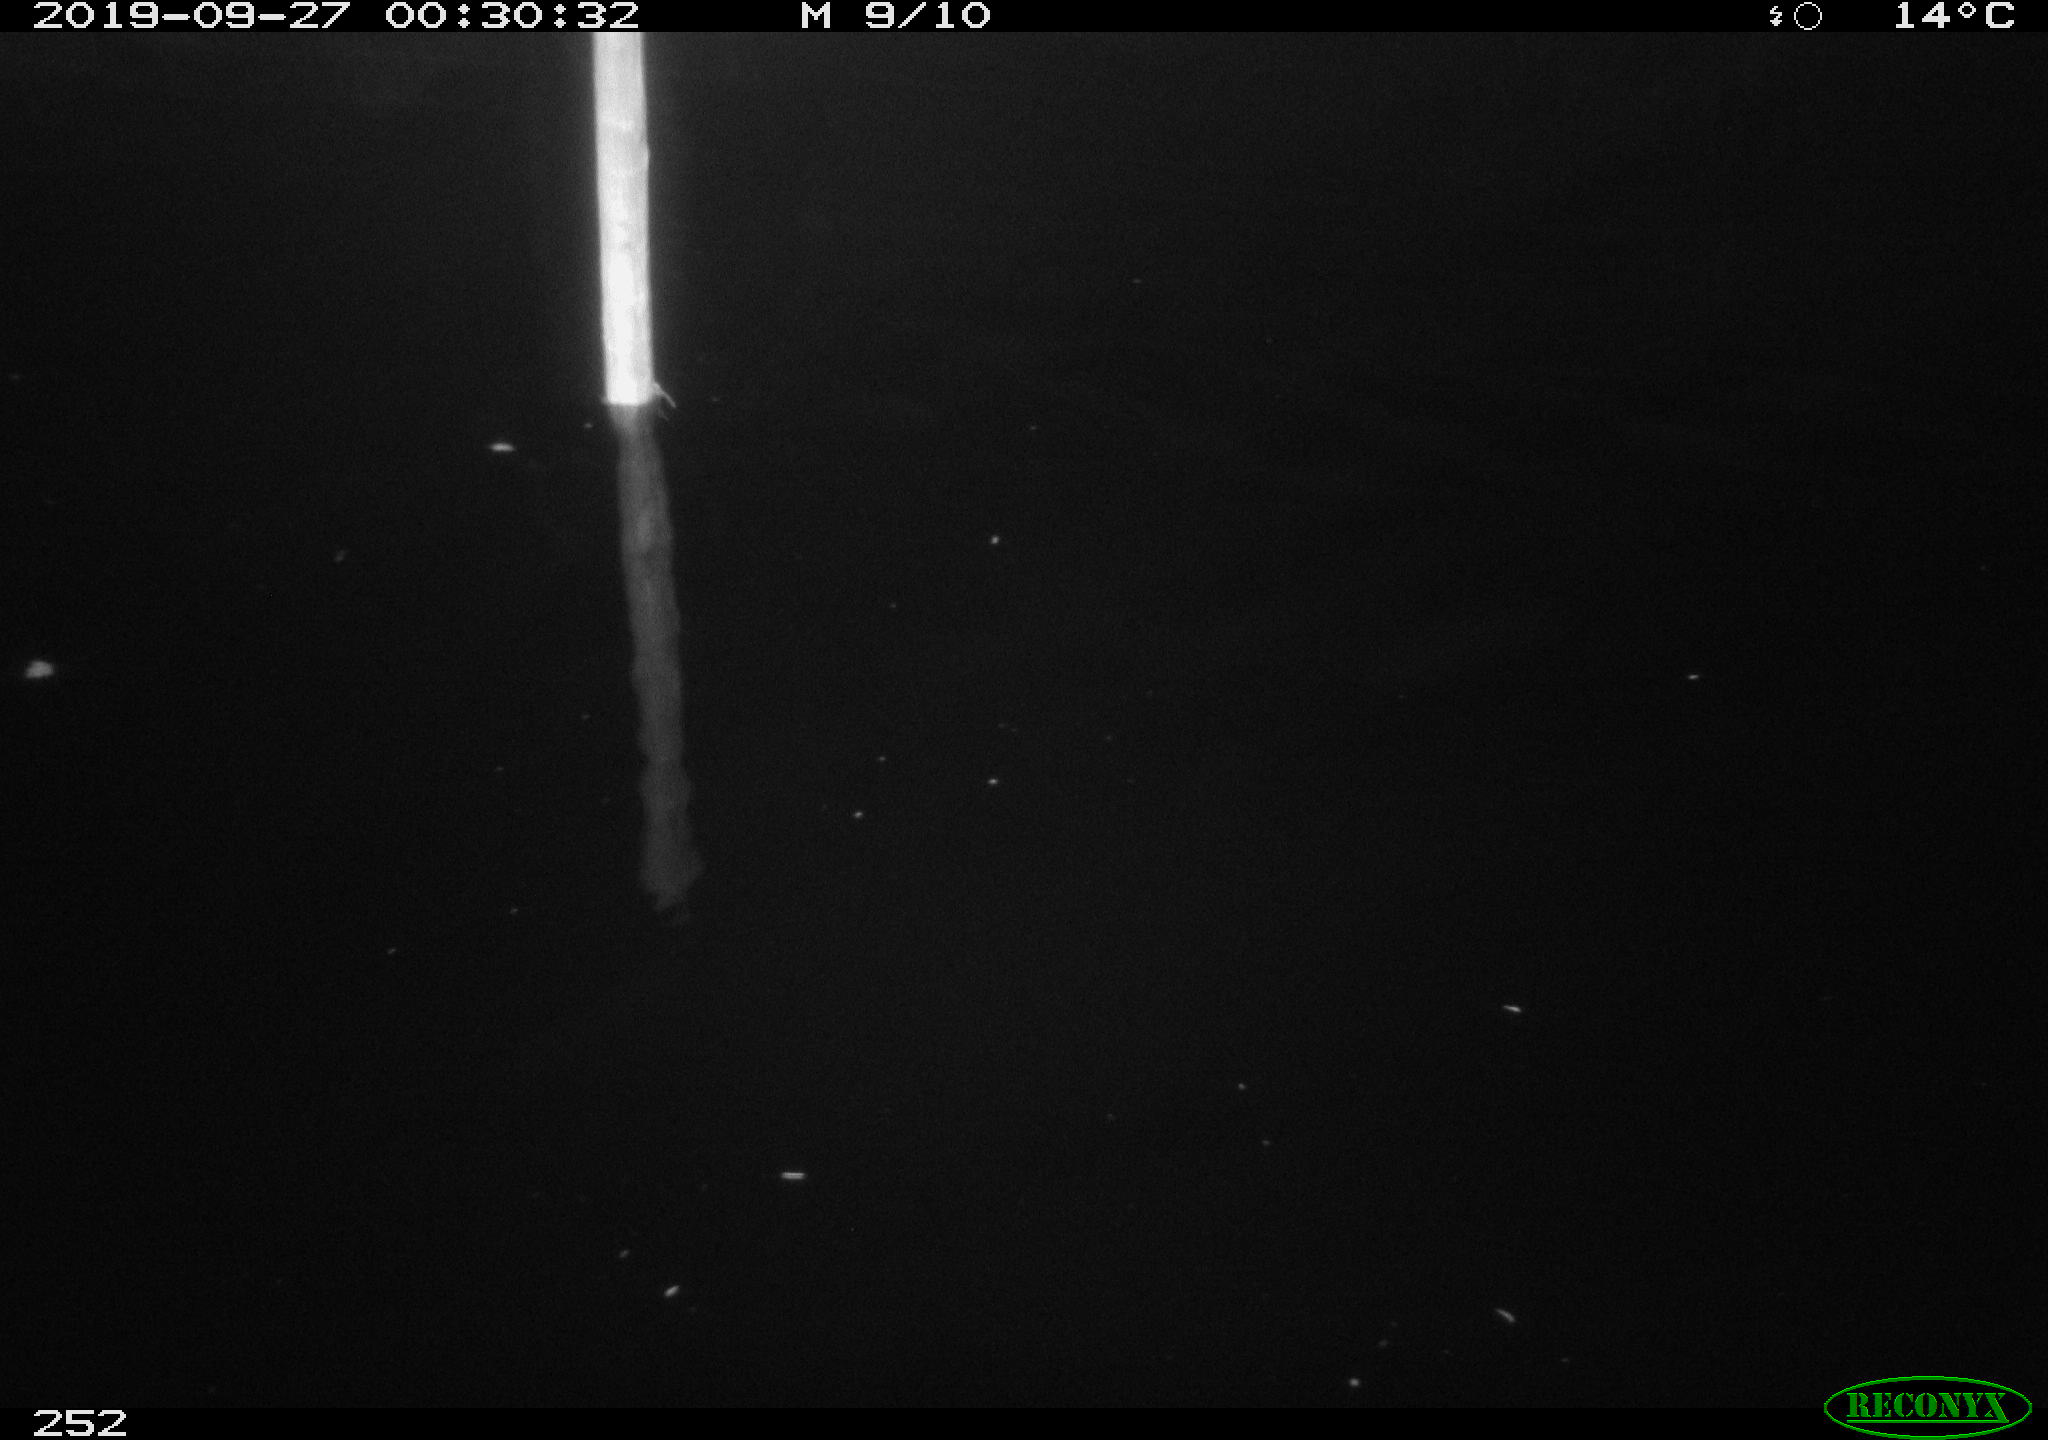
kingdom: Animalia
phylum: Chordata
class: Aves
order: Anseriformes
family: Anatidae
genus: Anas
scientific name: Anas platyrhynchos
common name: Mallard
